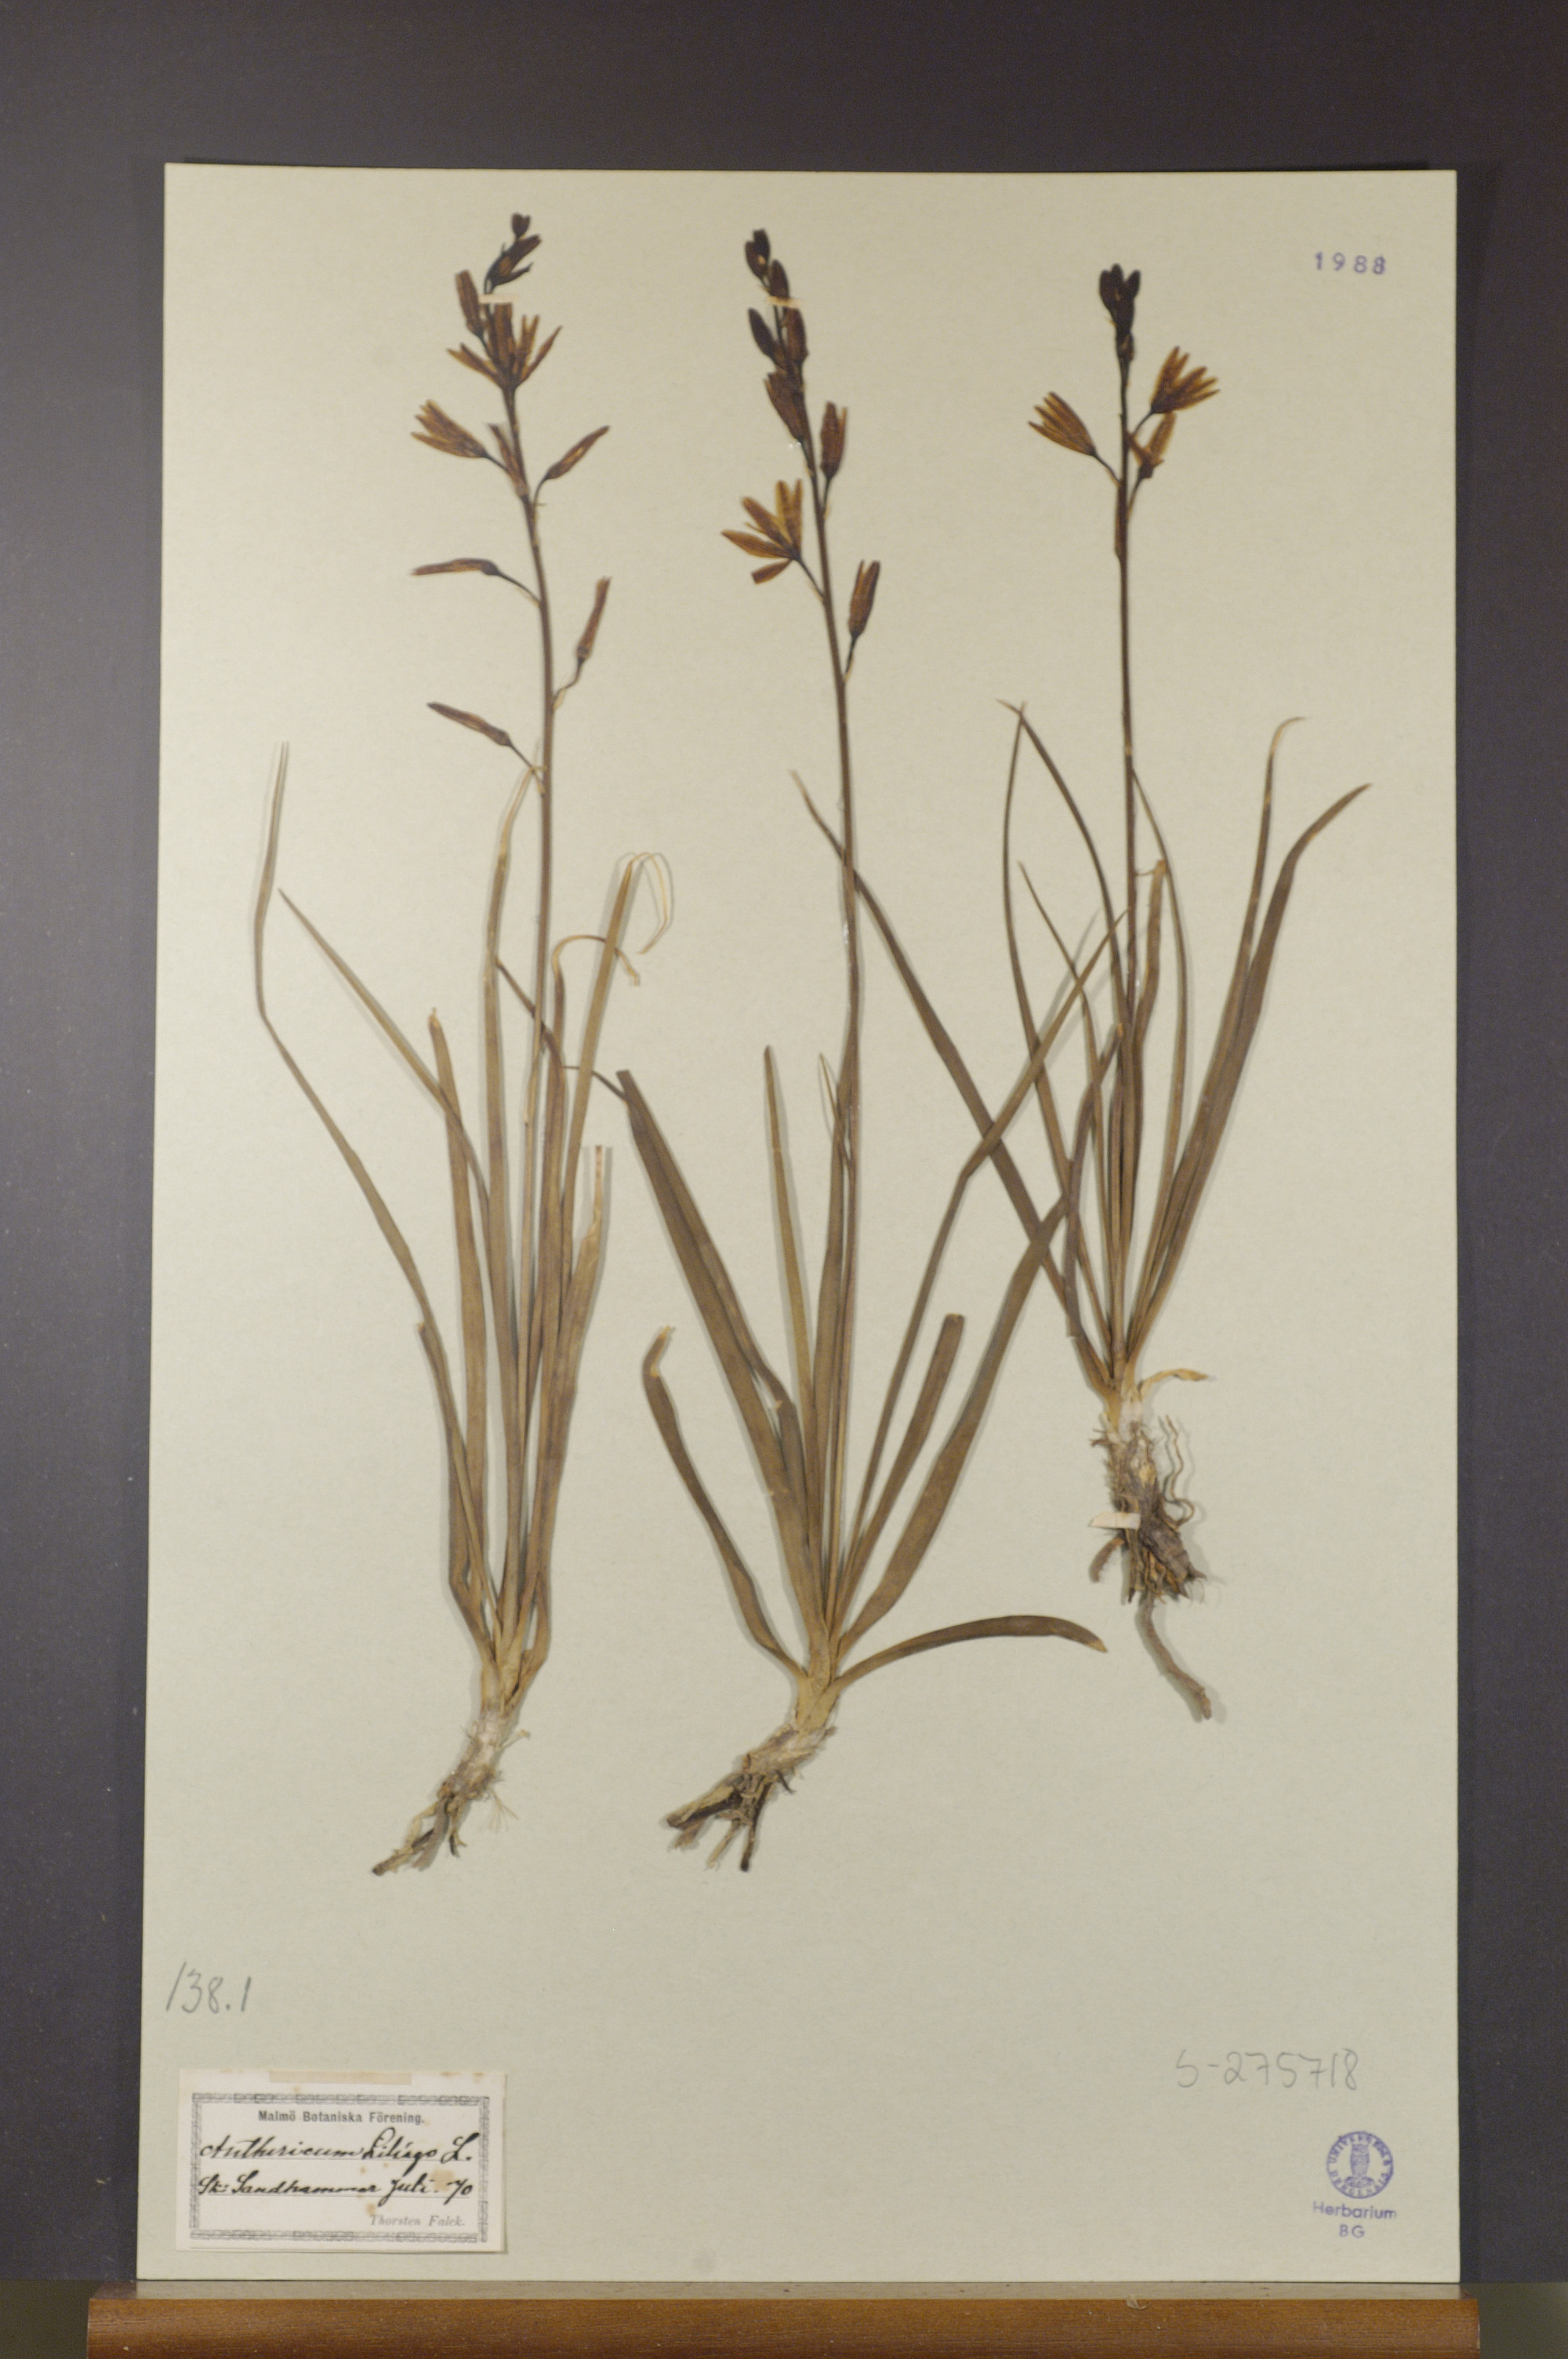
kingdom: Plantae
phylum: Tracheophyta
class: Liliopsida
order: Asparagales
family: Asparagaceae
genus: Anthericum
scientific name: Anthericum liliago
